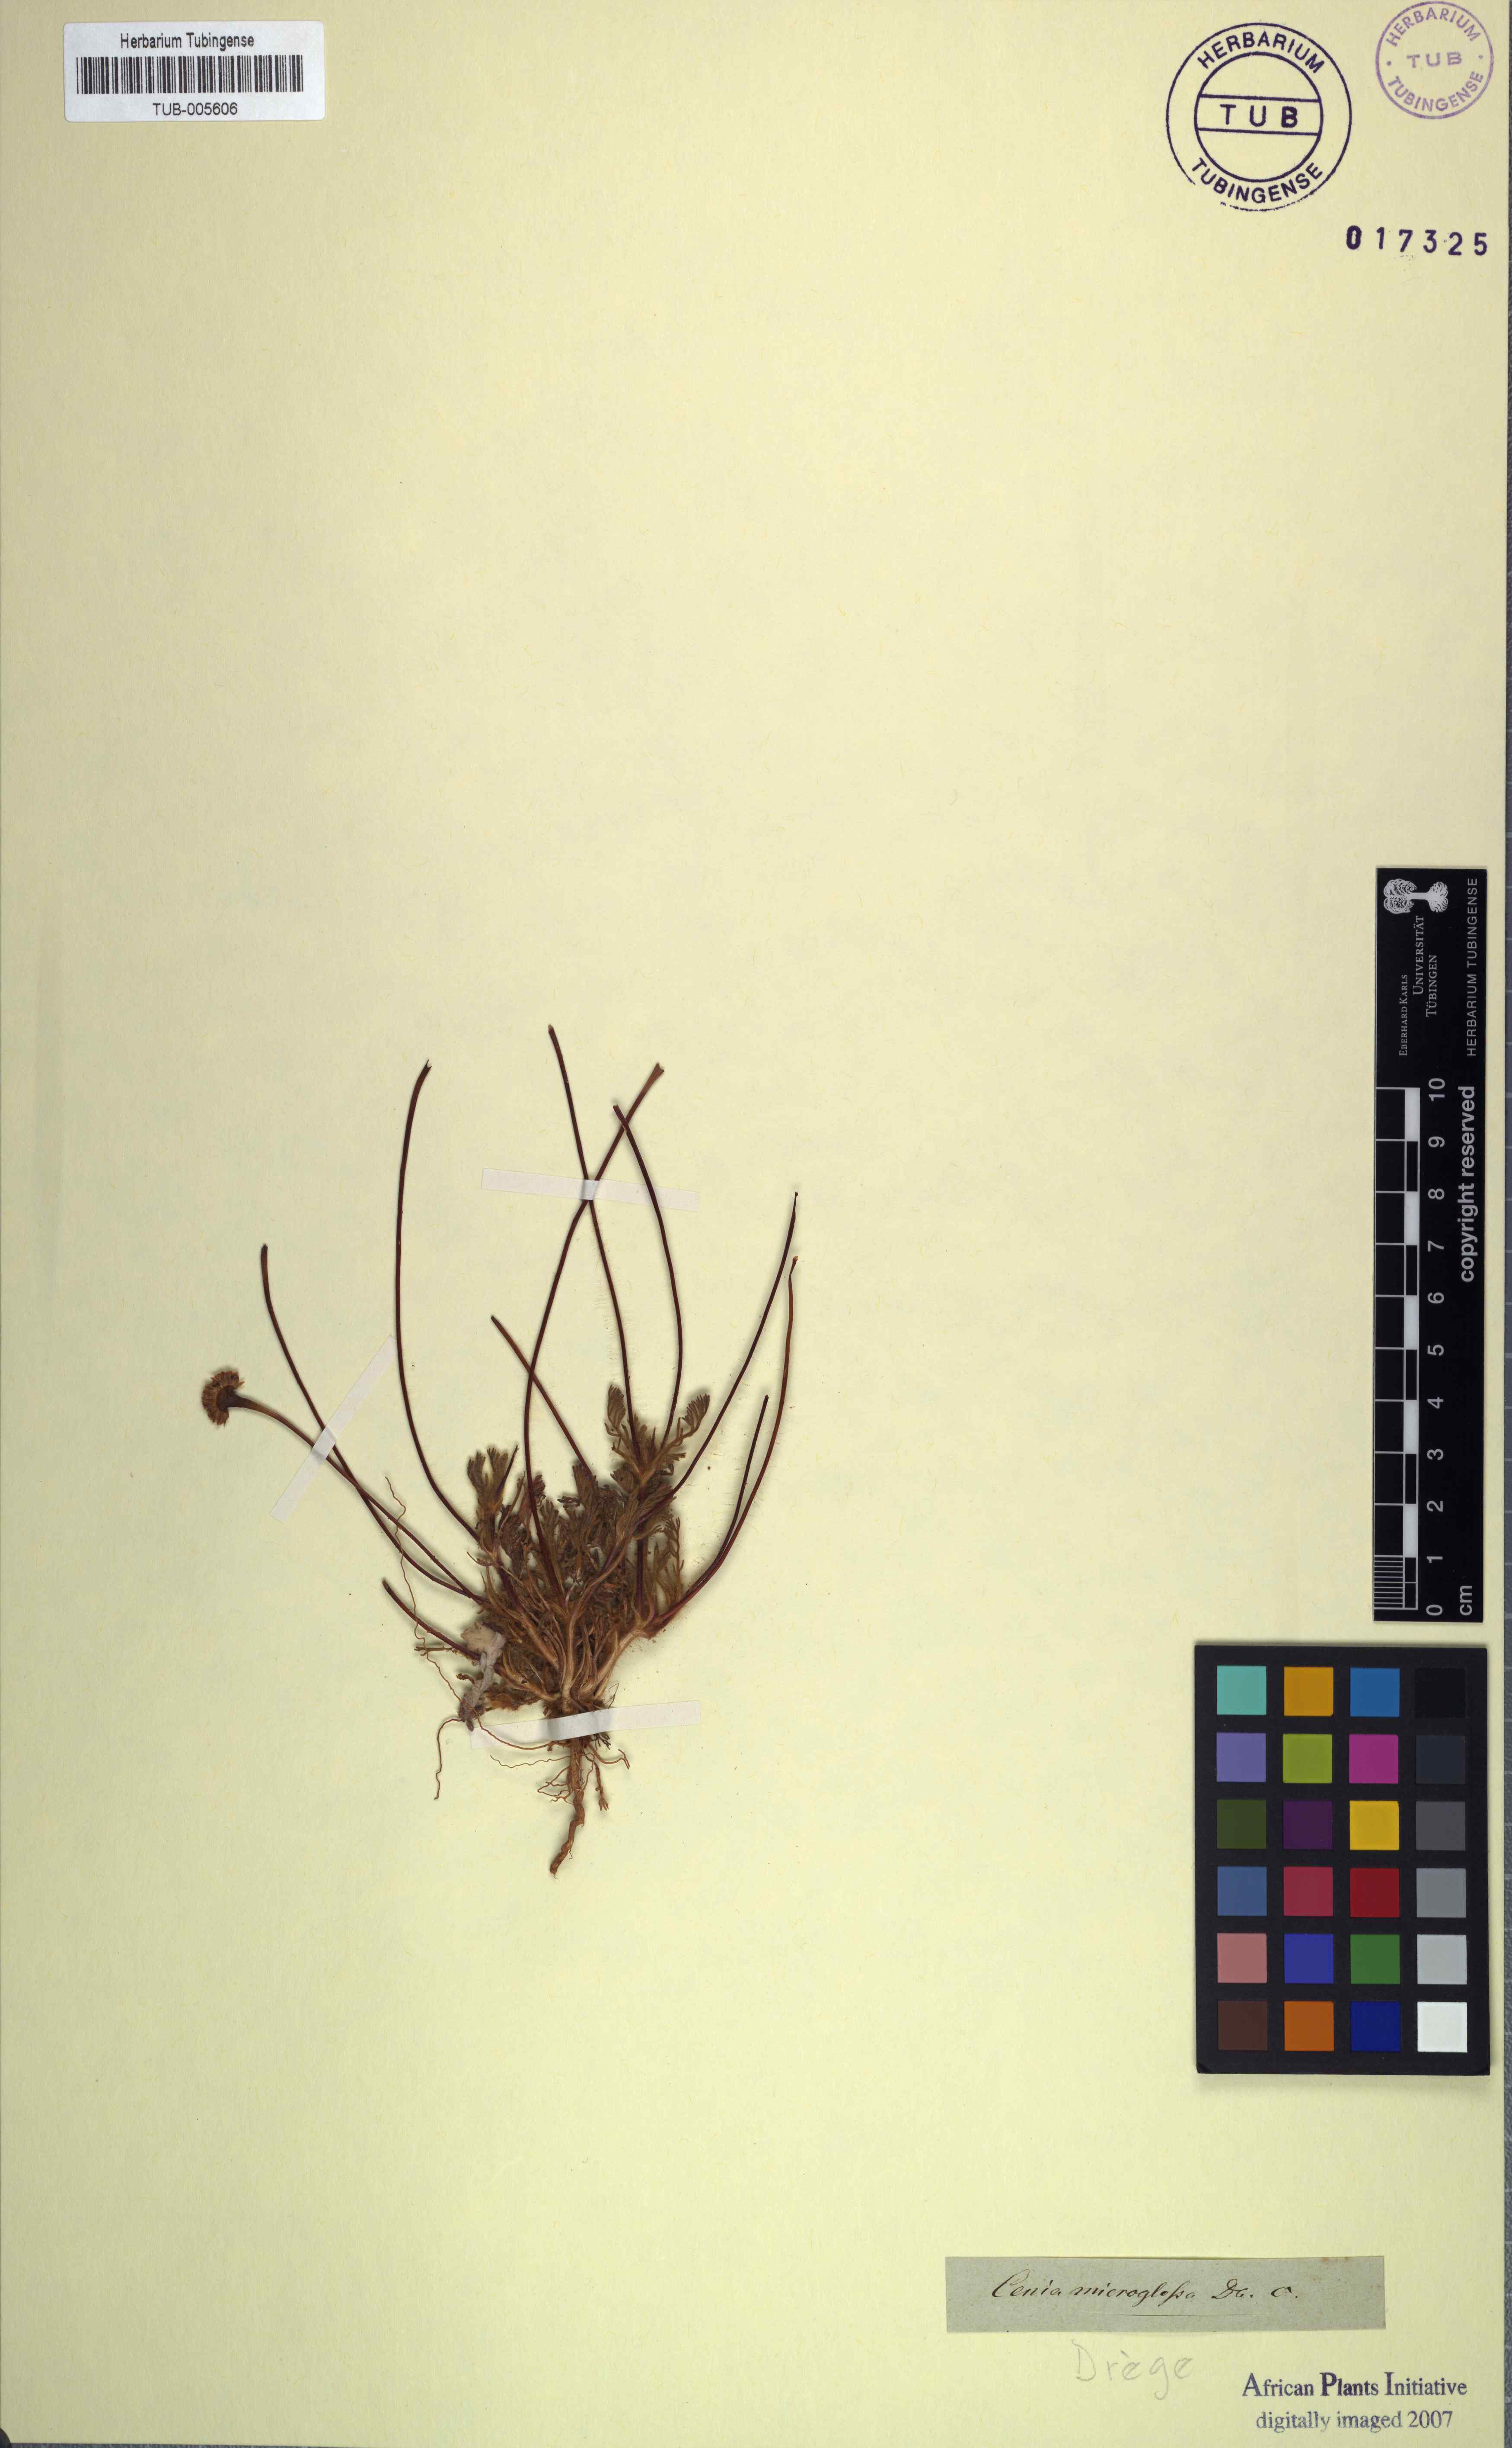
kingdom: Plantae
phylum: Tracheophyta
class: Magnoliopsida
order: Asterales
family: Asteraceae
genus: Cotula
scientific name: Cotula microglossa
